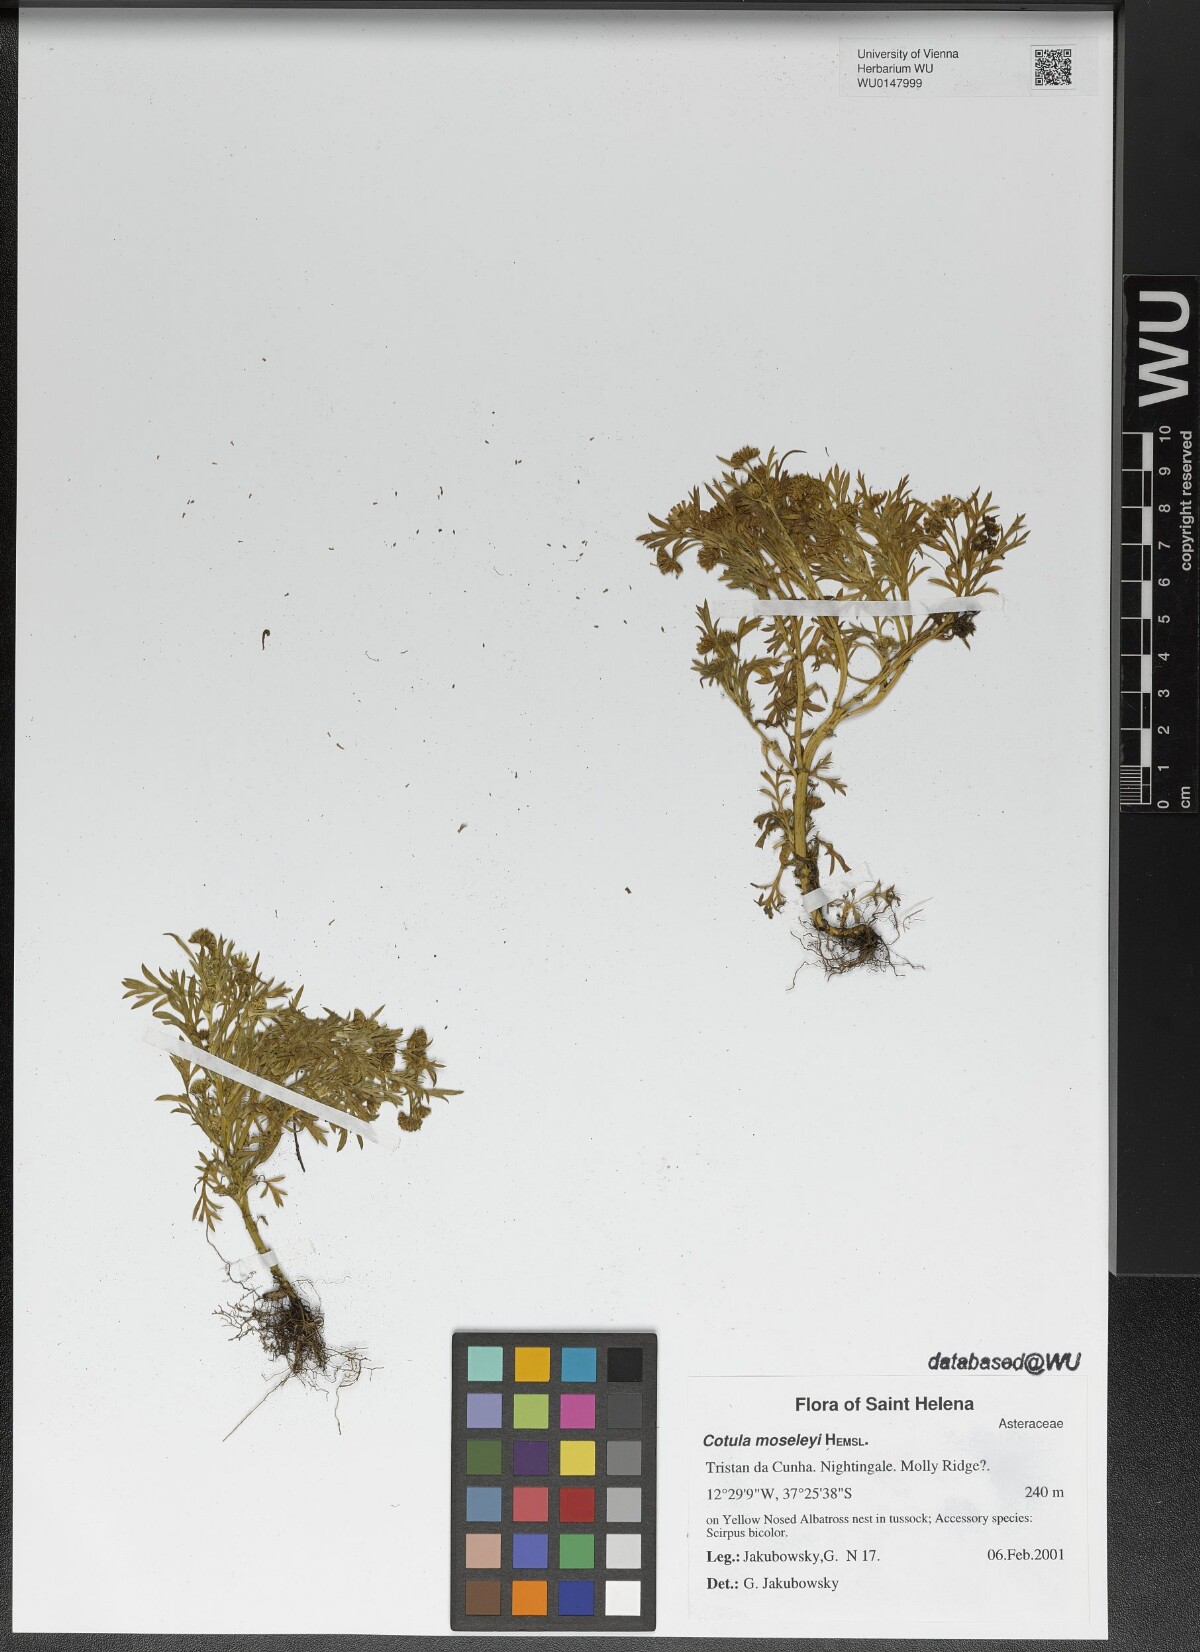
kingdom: Plantae
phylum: Tracheophyta
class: Magnoliopsida
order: Asterales
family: Asteraceae
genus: Cotula
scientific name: Cotula moseleyi
